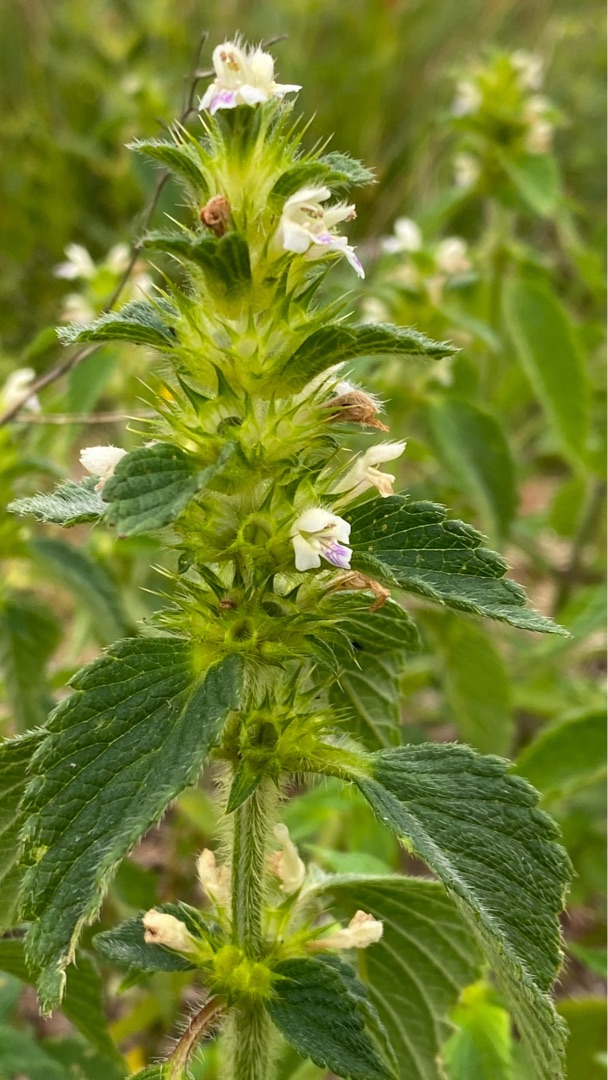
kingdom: Plantae
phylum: Tracheophyta
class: Magnoliopsida
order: Lamiales
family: Lamiaceae
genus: Galeopsis
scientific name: Galeopsis bifida
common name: Skov-hanekro
